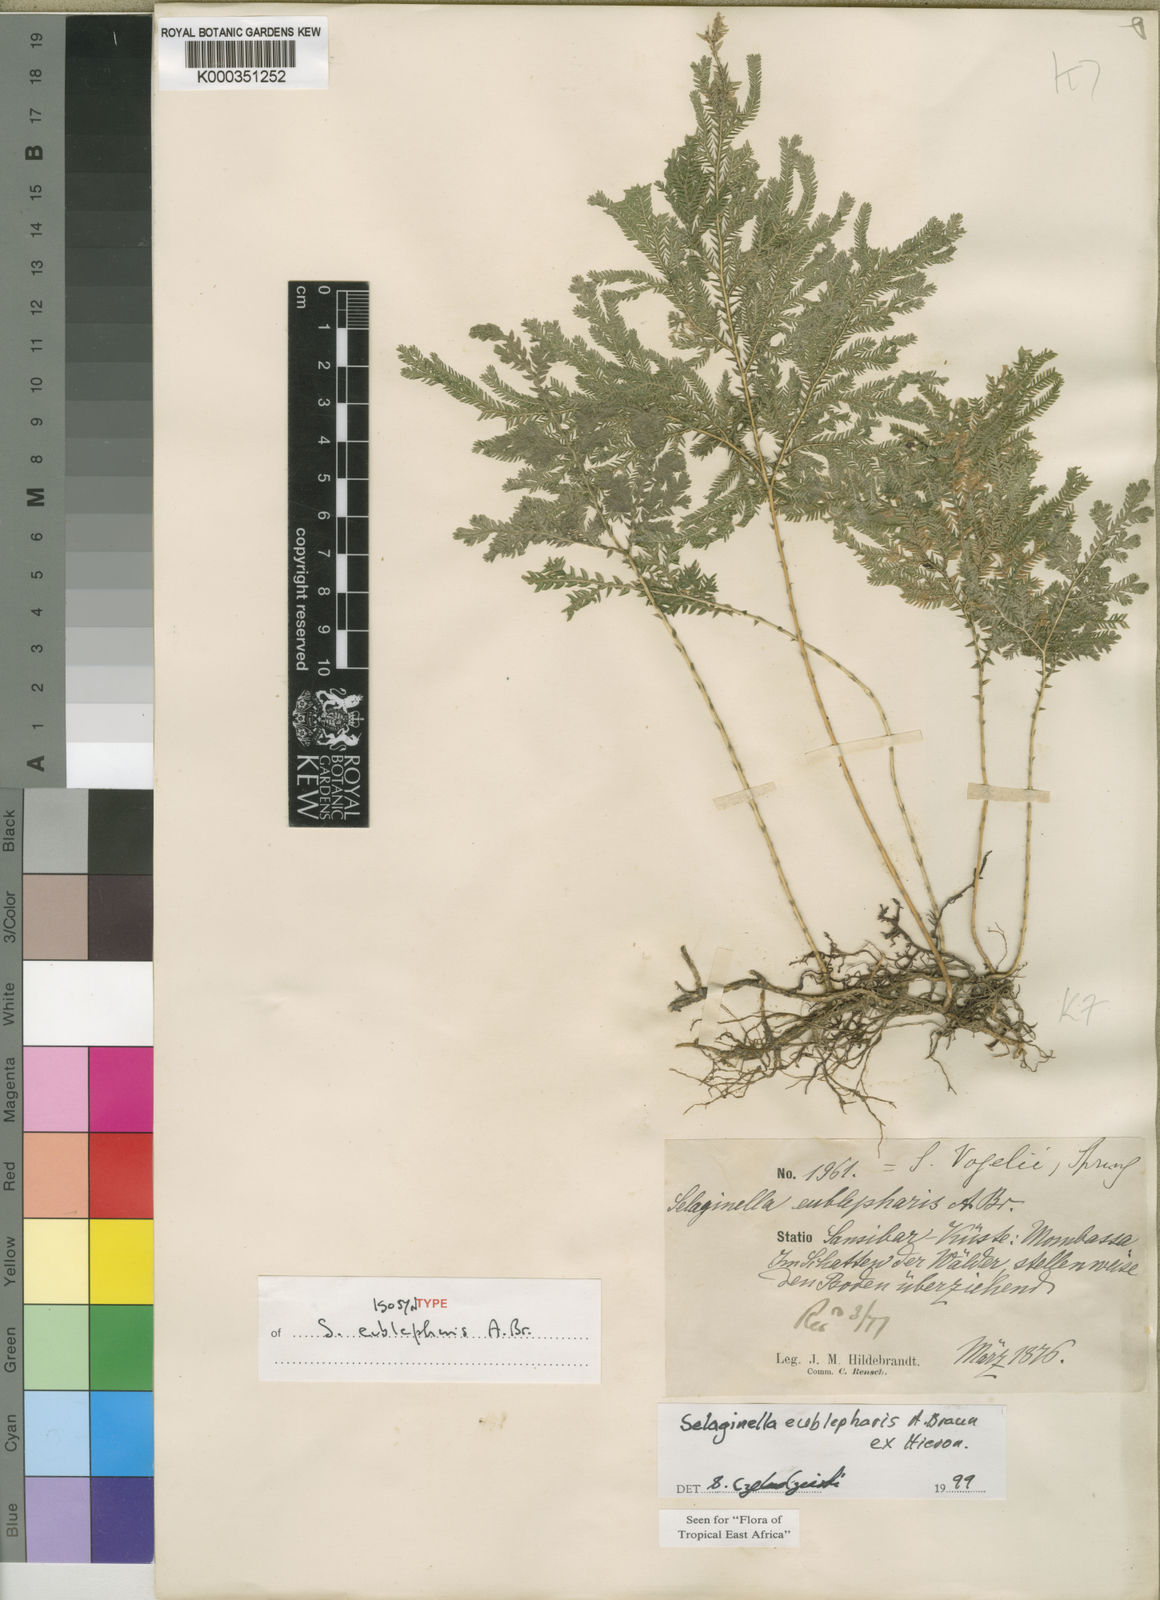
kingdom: Plantae
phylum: Tracheophyta
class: Lycopodiopsida
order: Selaginellales
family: Selaginellaceae
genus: Selaginella
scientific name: Selaginella eublepharis
